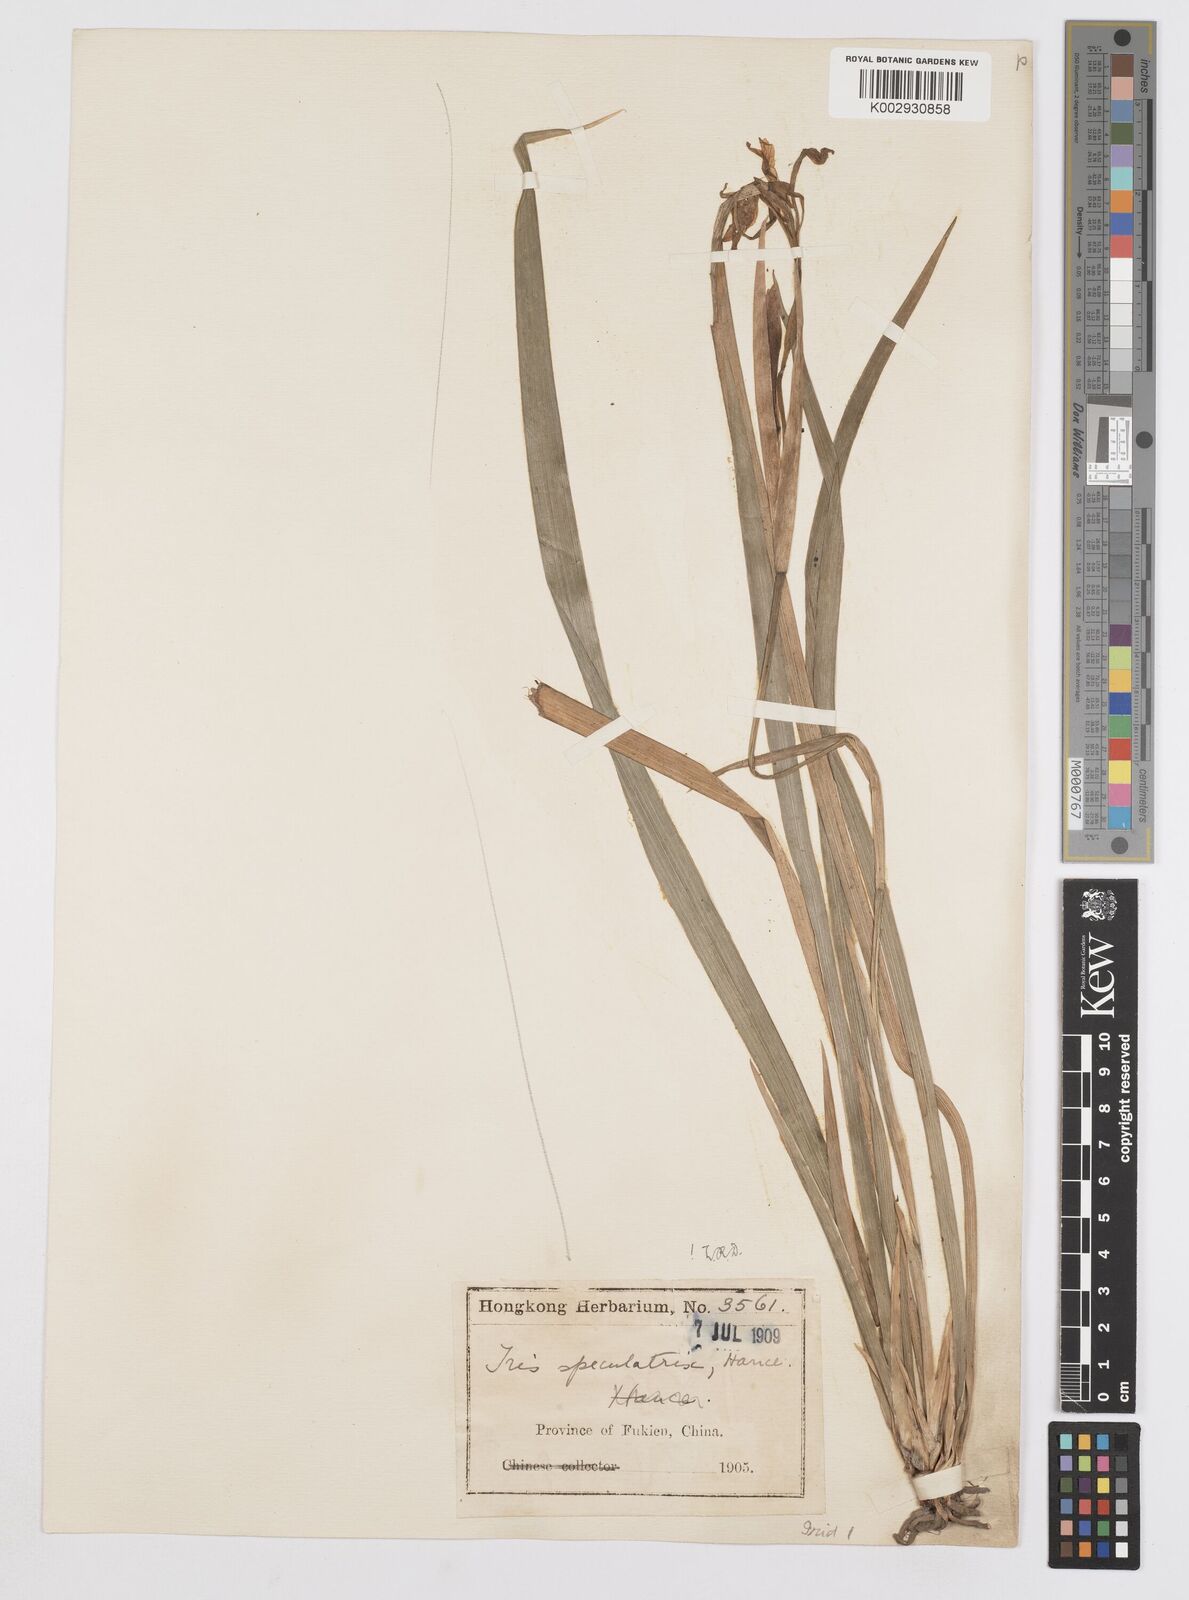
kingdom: Plantae
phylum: Tracheophyta
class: Liliopsida
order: Asparagales
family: Iridaceae
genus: Iris
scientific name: Iris speculatrix
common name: Small-flower iris
